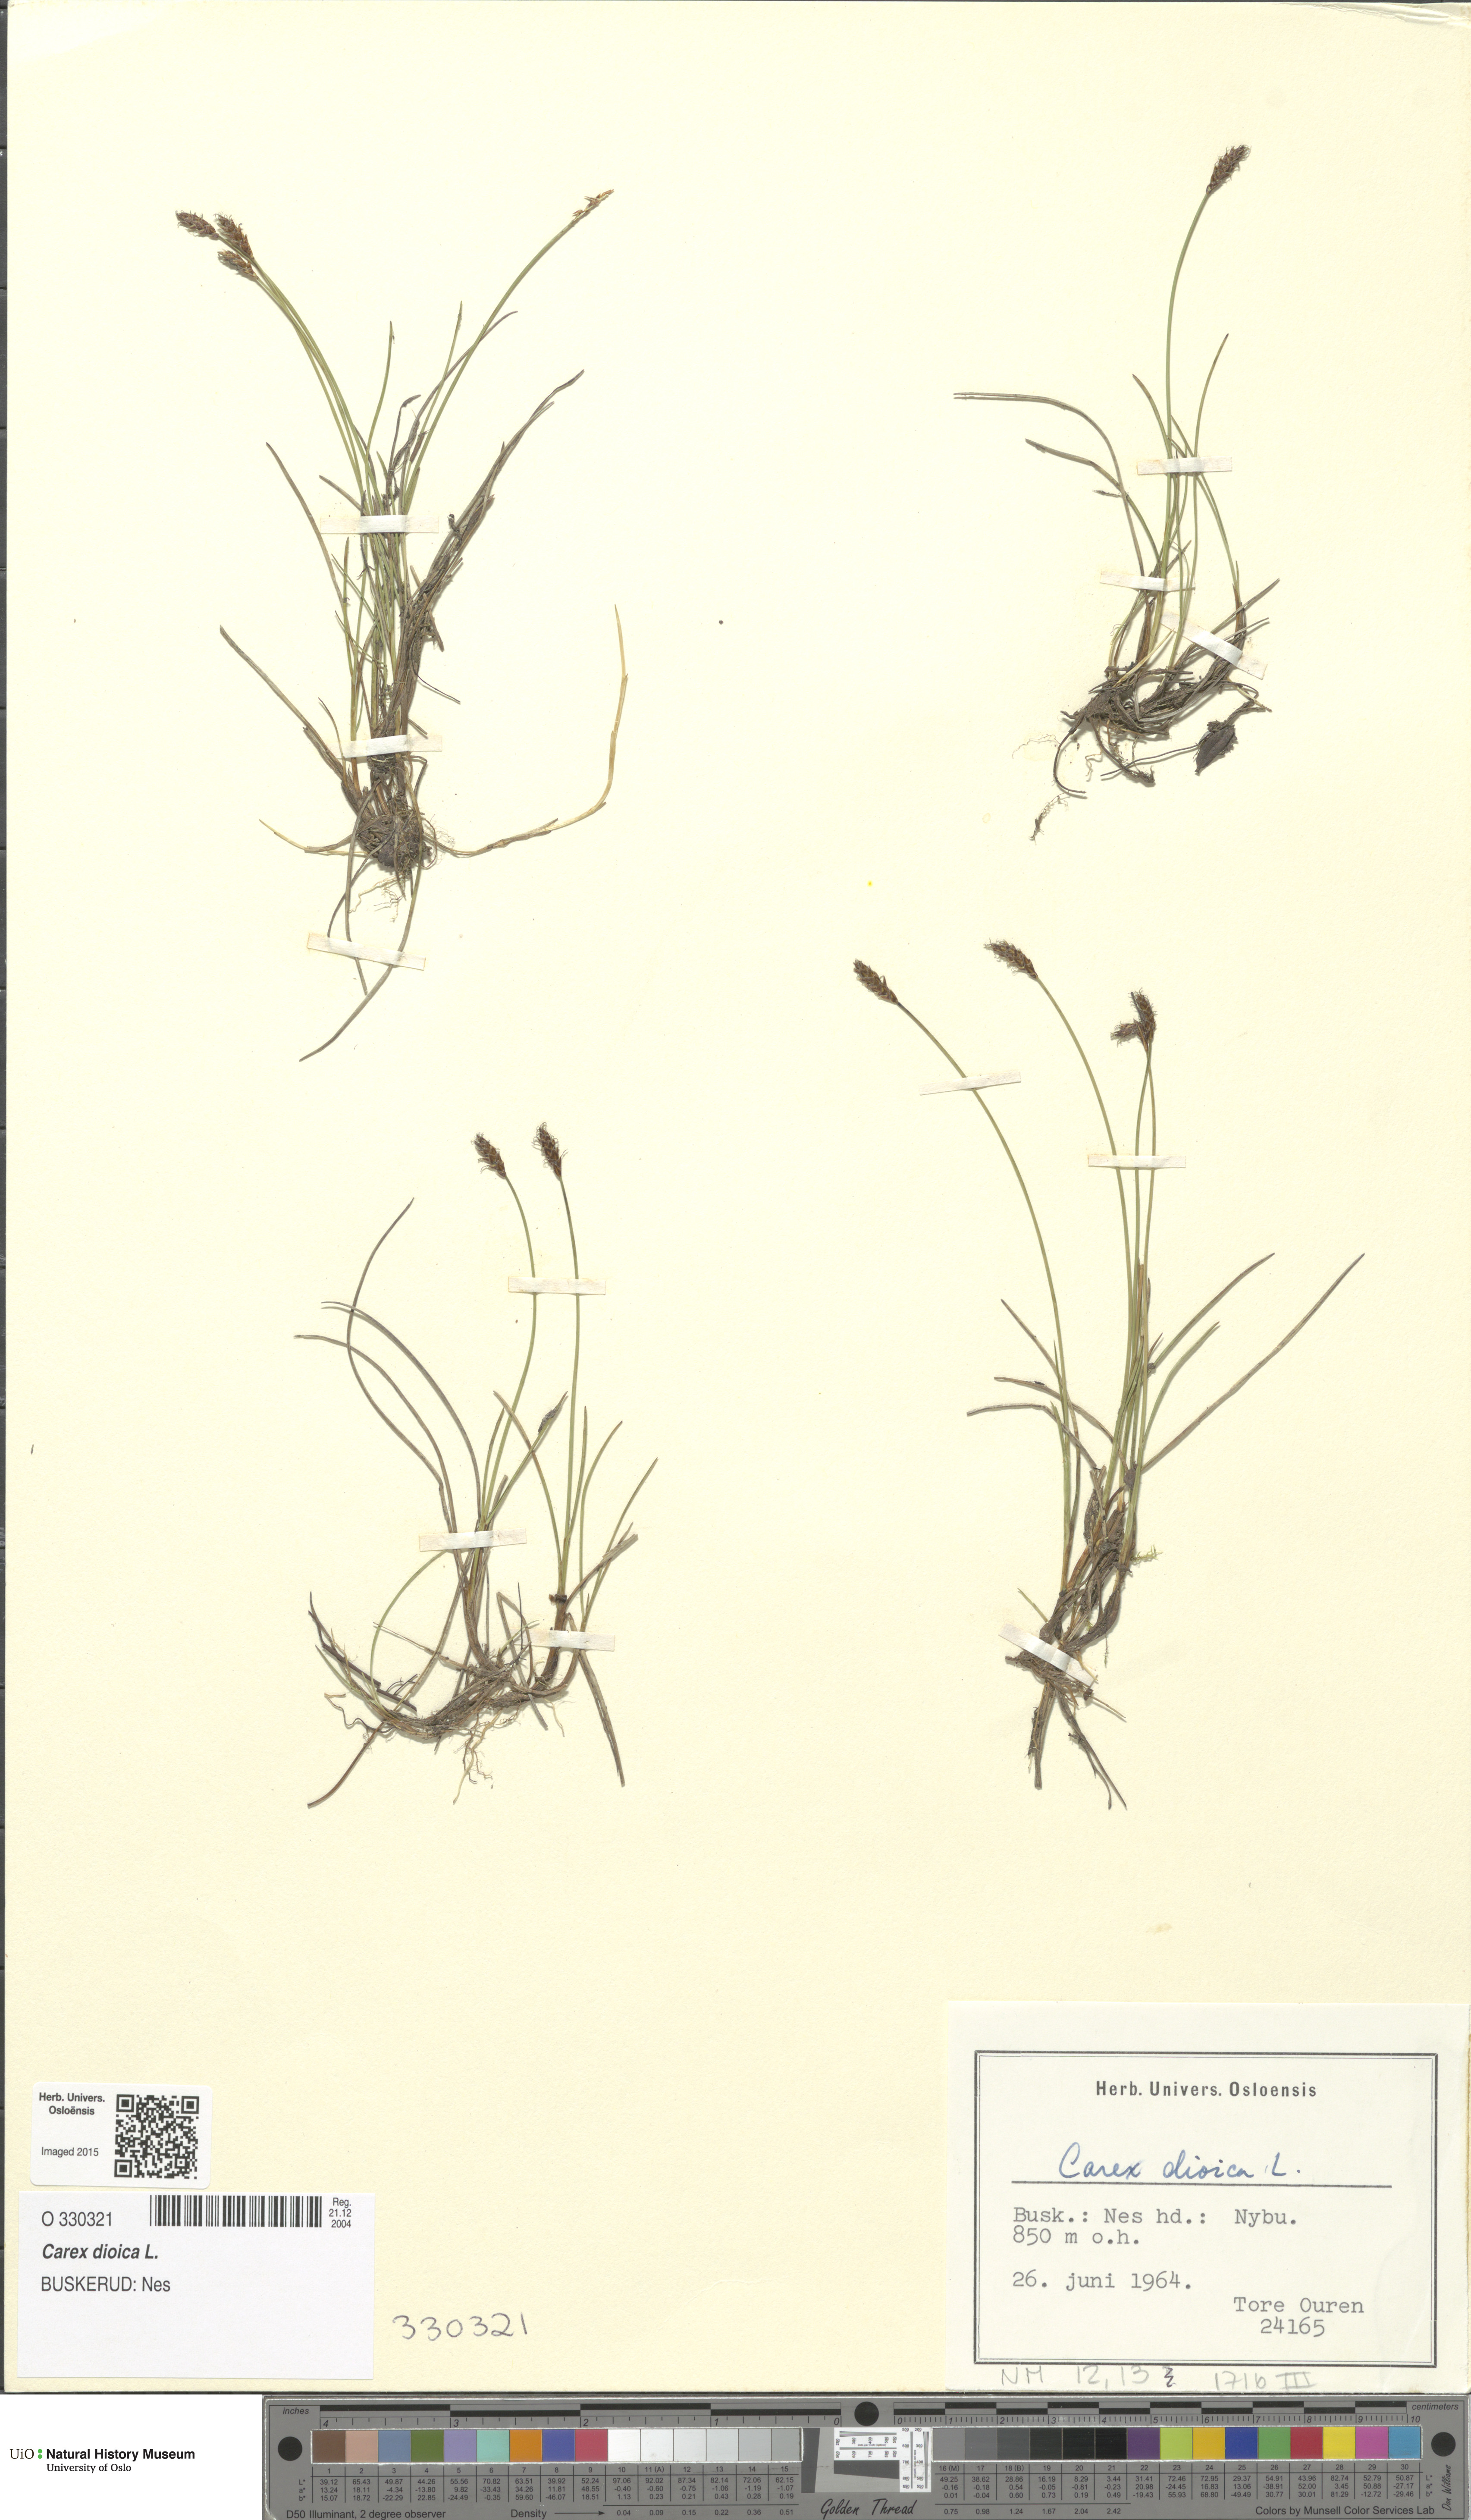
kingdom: Plantae
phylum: Tracheophyta
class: Liliopsida
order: Poales
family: Cyperaceae
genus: Carex
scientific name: Carex dioica
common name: Dioecious sedge
